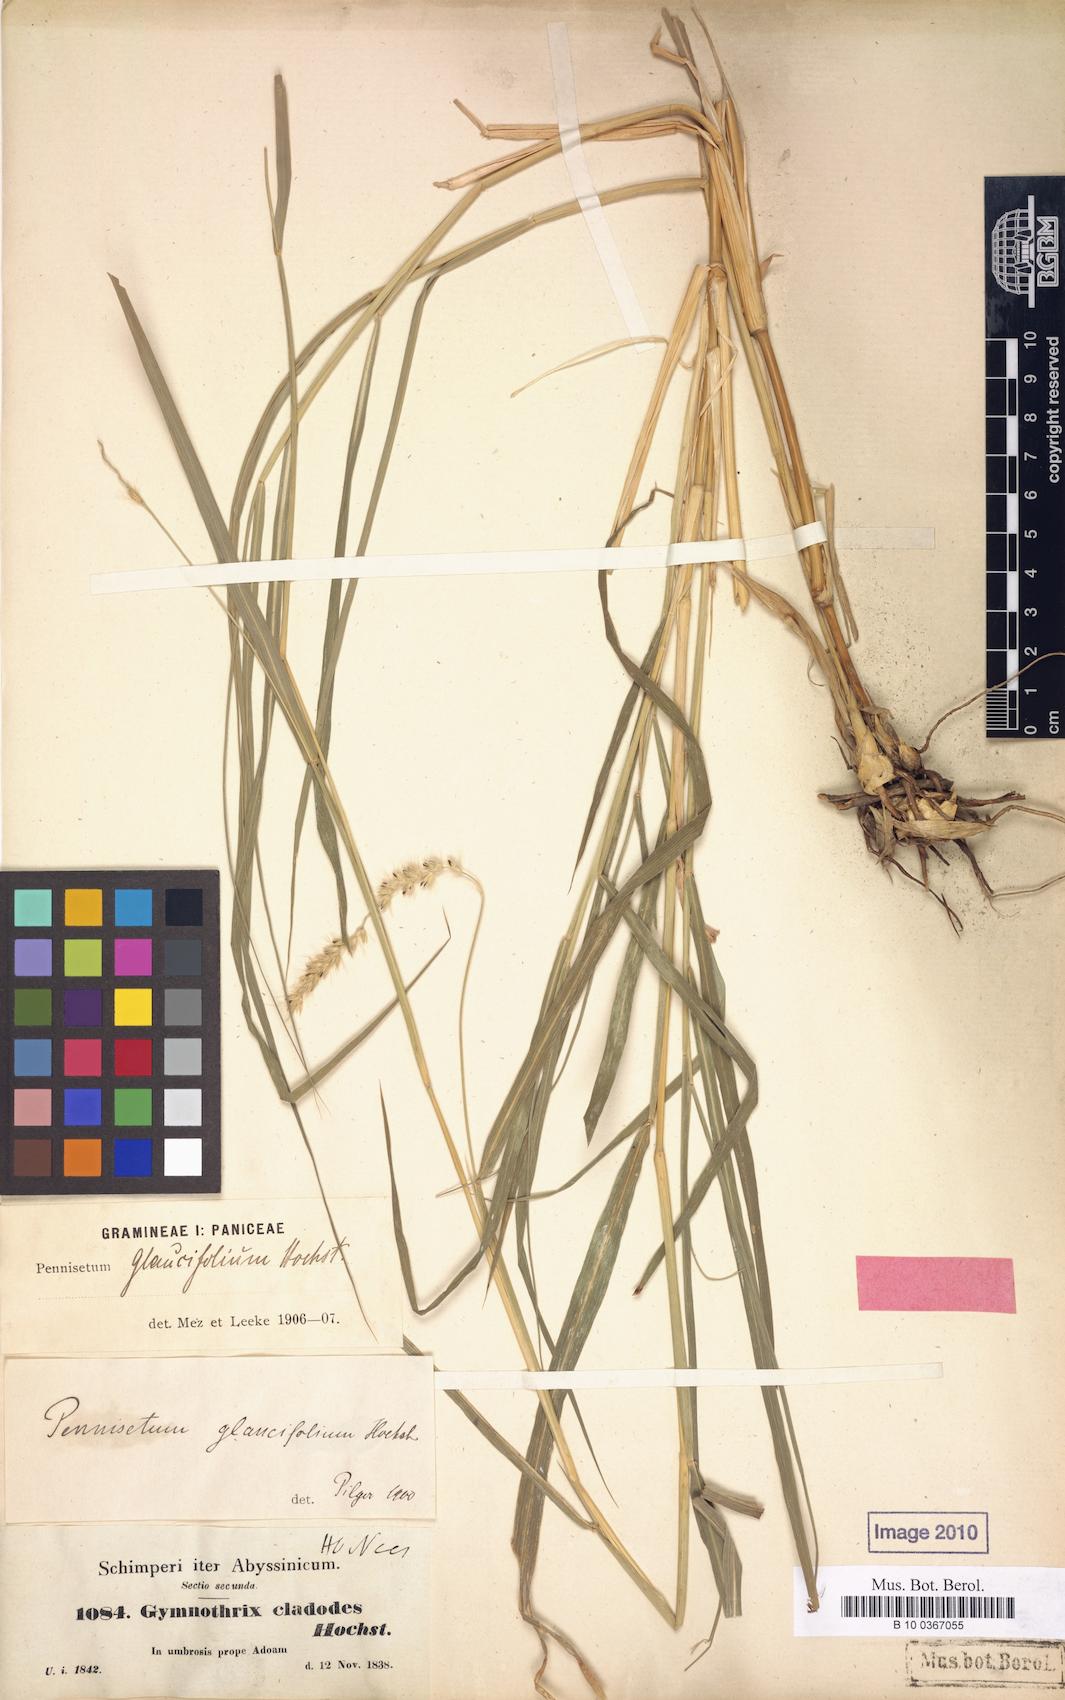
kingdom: Plantae
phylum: Tracheophyta
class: Liliopsida
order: Poales
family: Poaceae
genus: Cenchrus
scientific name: Cenchrus glaucifolius
